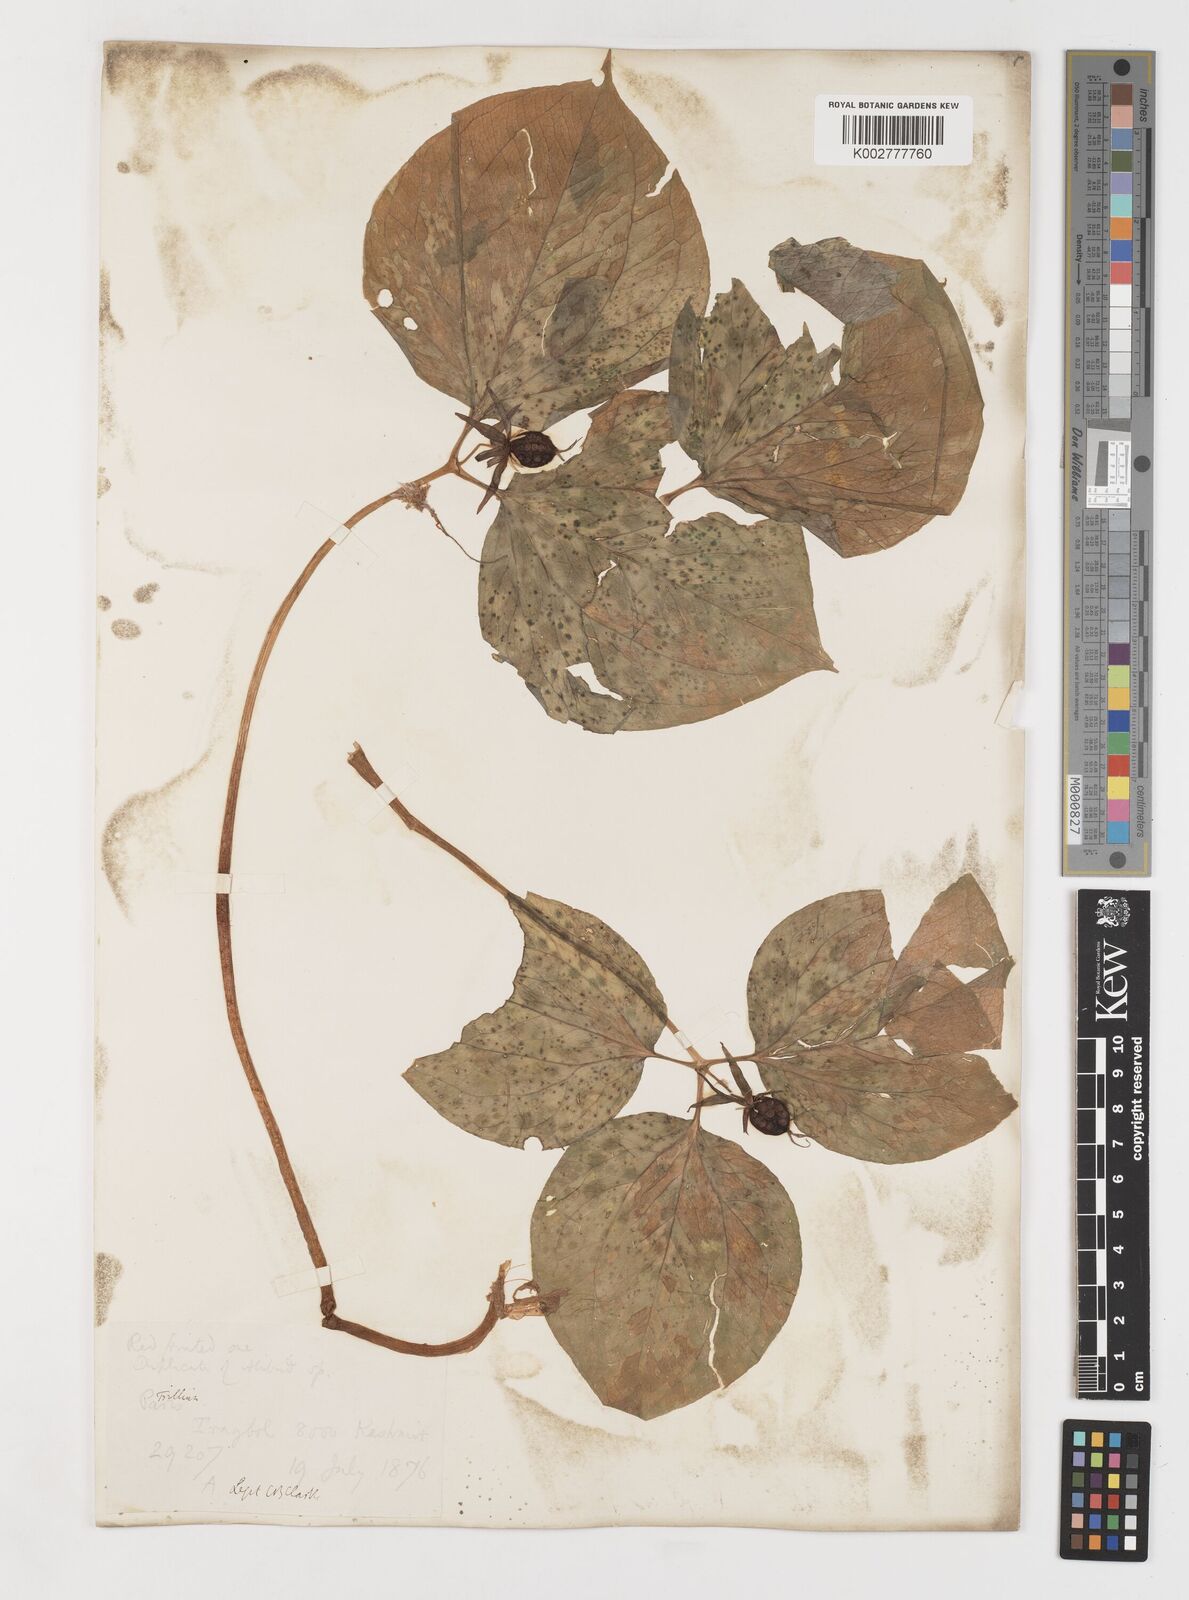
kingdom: Plantae
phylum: Tracheophyta
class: Liliopsida
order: Liliales
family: Melanthiaceae
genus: Trillium
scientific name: Trillium govanianum
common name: Himalayan trillium
